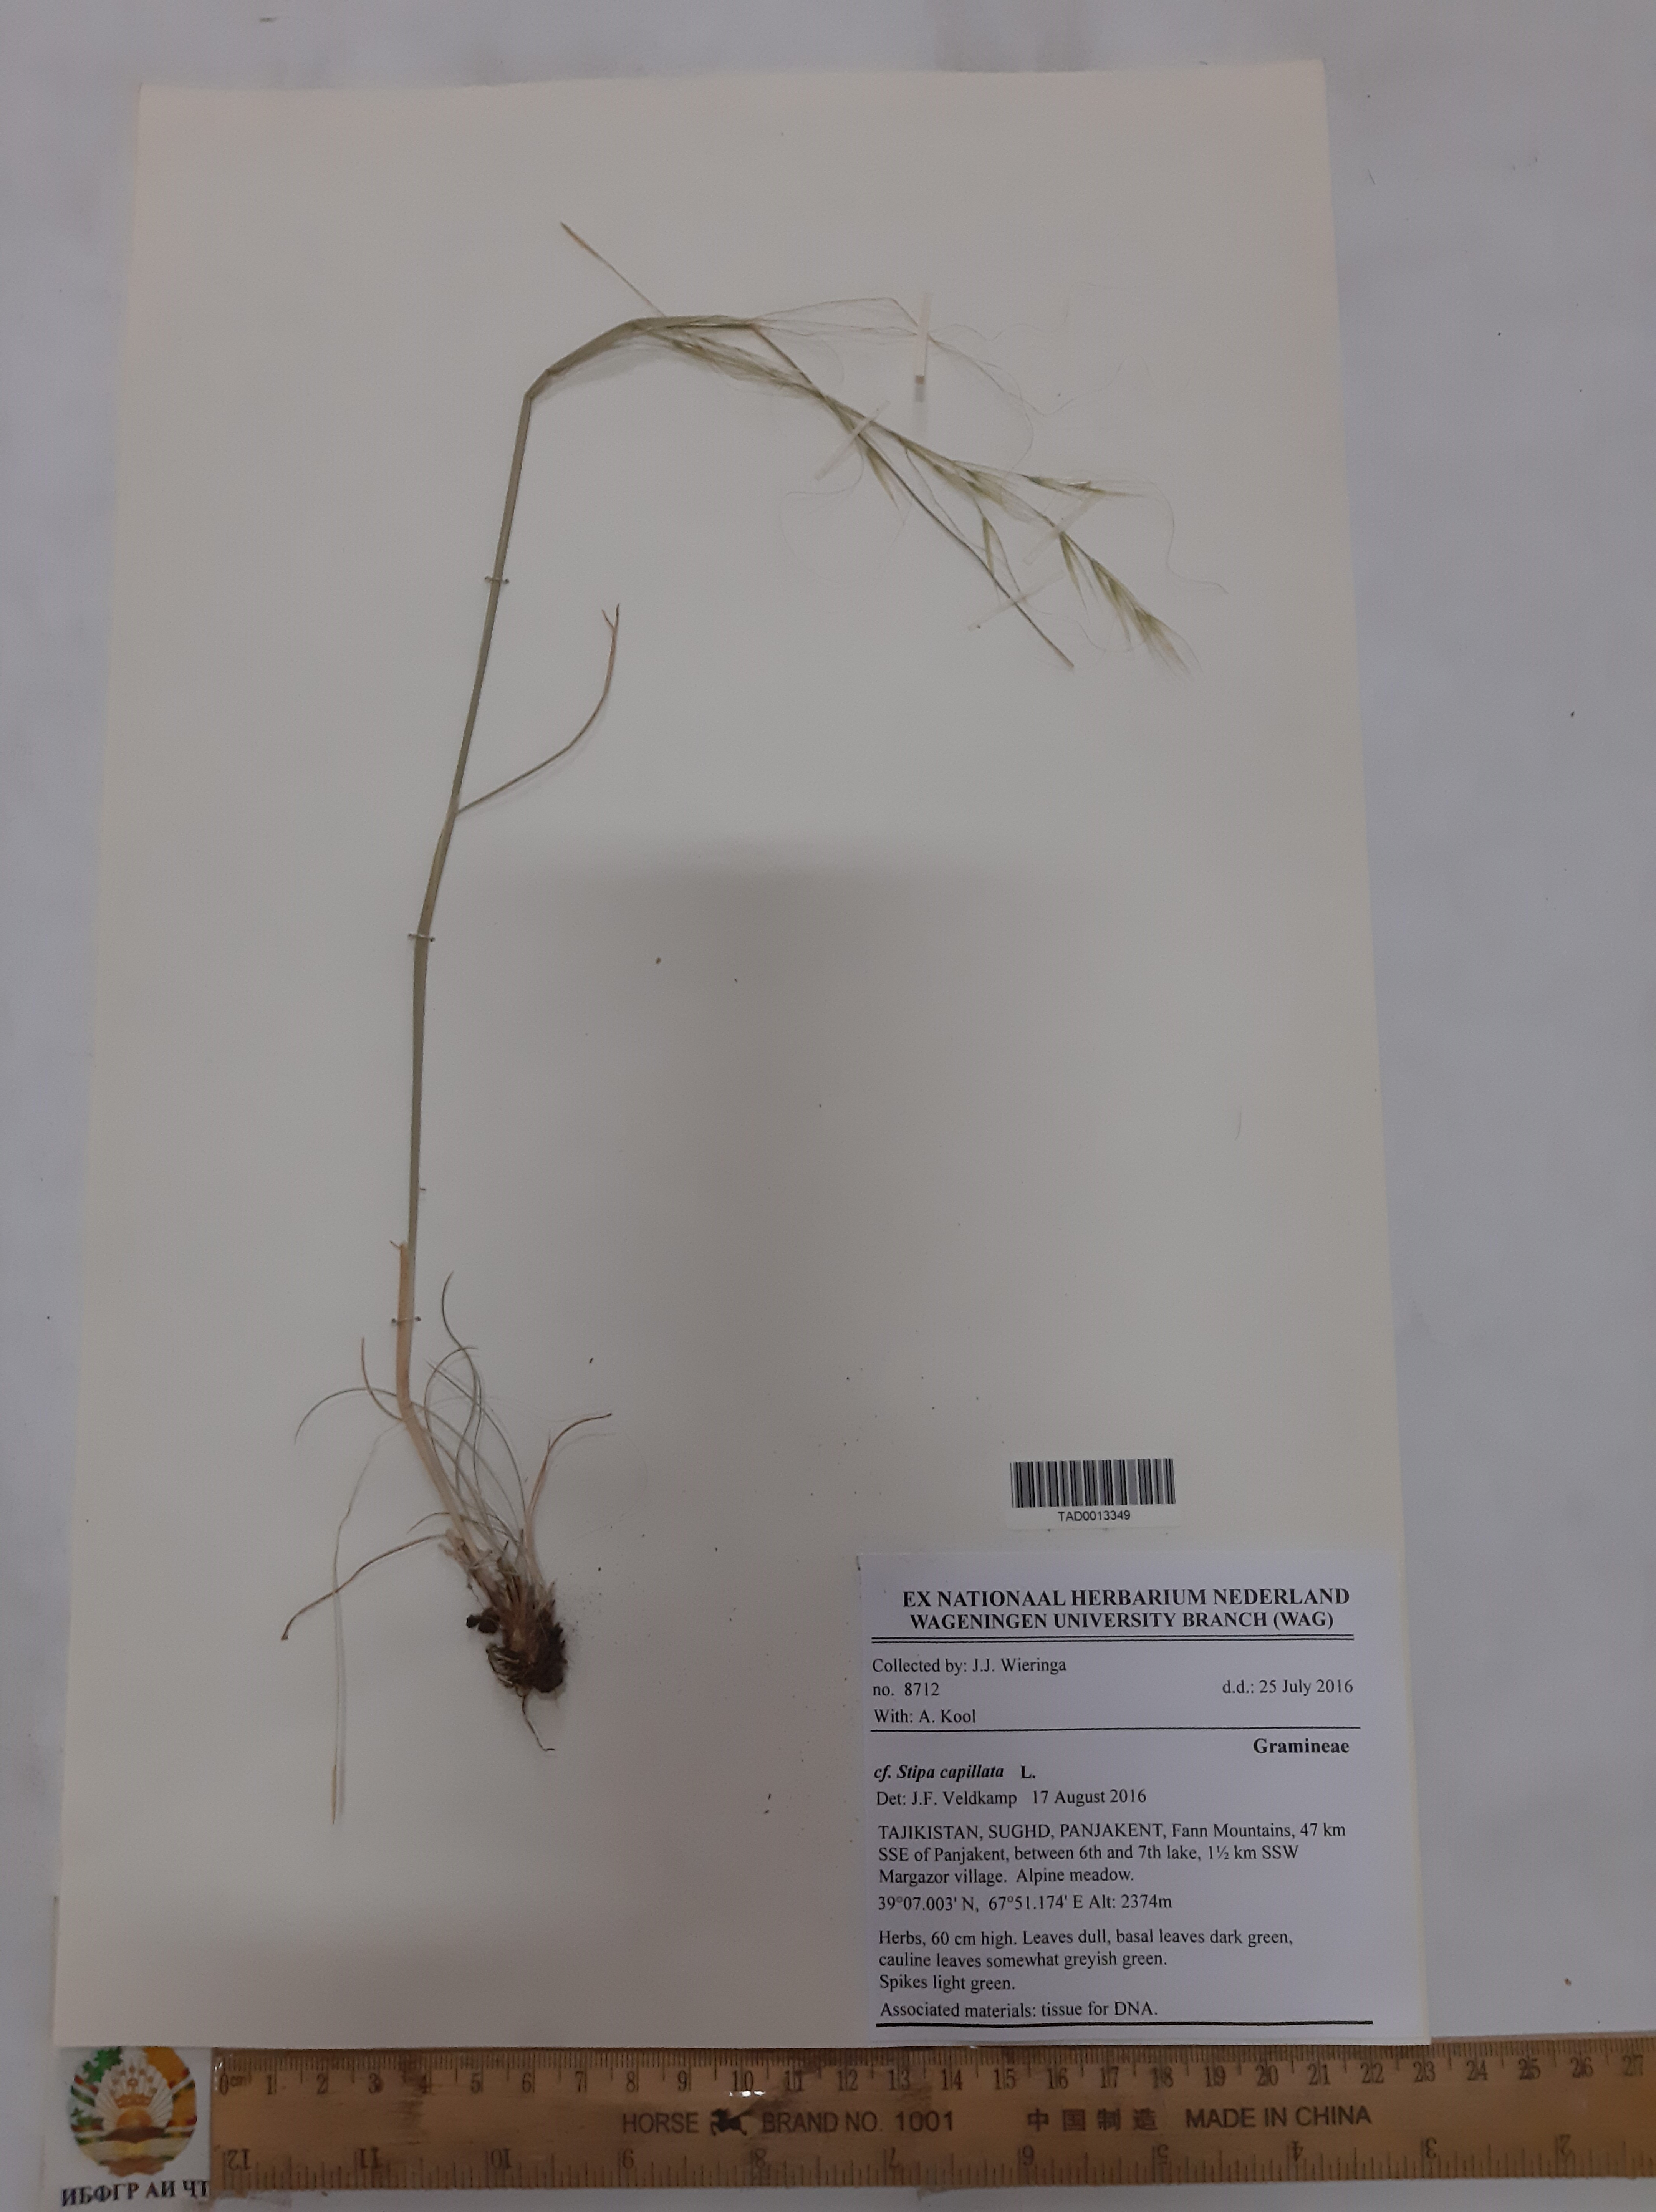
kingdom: Plantae
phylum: Tracheophyta
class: Liliopsida
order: Poales
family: Poaceae
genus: Stipa
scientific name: Stipa capillata
